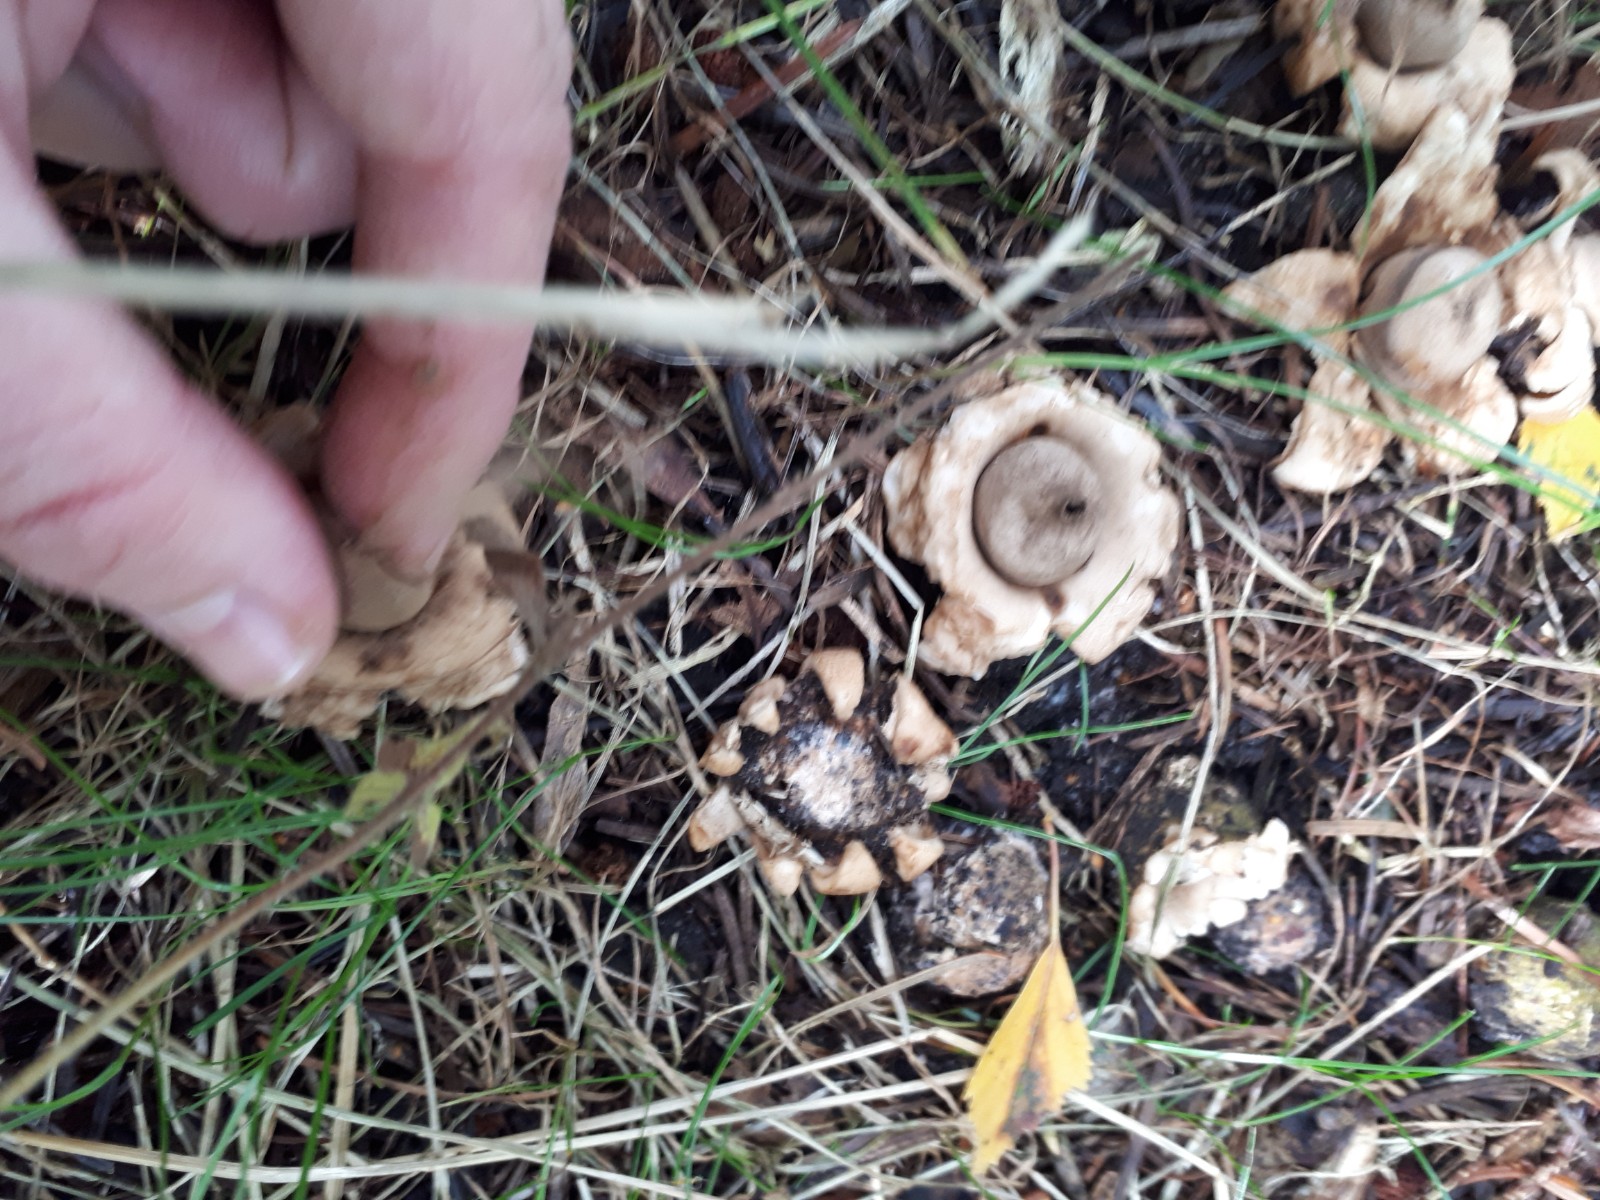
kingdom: Fungi
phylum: Basidiomycota
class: Agaricomycetes
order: Geastrales
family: Geastraceae
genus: Geastrum
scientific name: Geastrum fimbriatum
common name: frynset stjernebold
